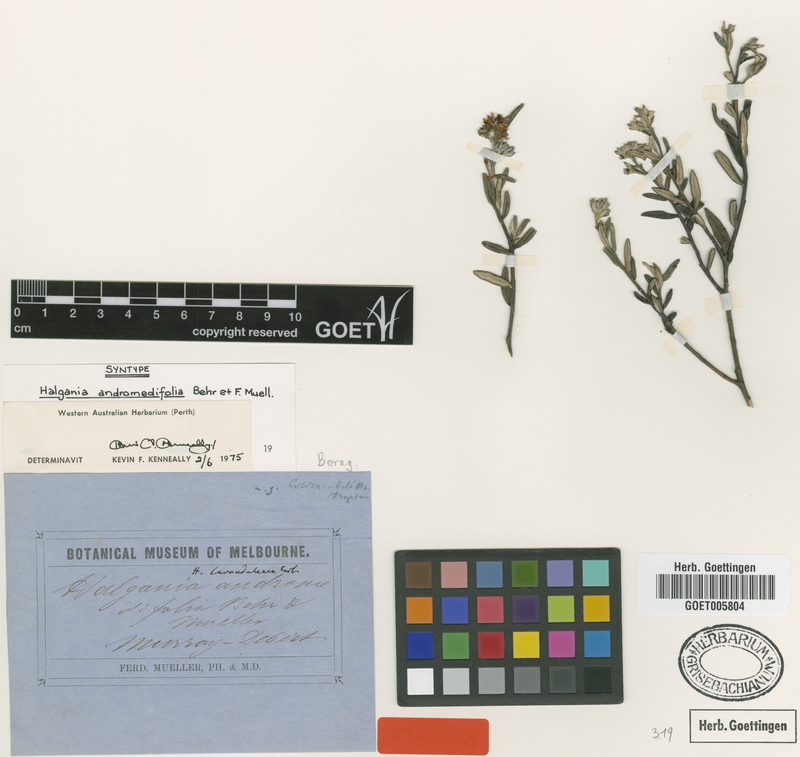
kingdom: Plantae
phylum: Tracheophyta
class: Magnoliopsida
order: Boraginales
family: Ehretiaceae
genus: Halgania
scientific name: Halgania andromedifolia
